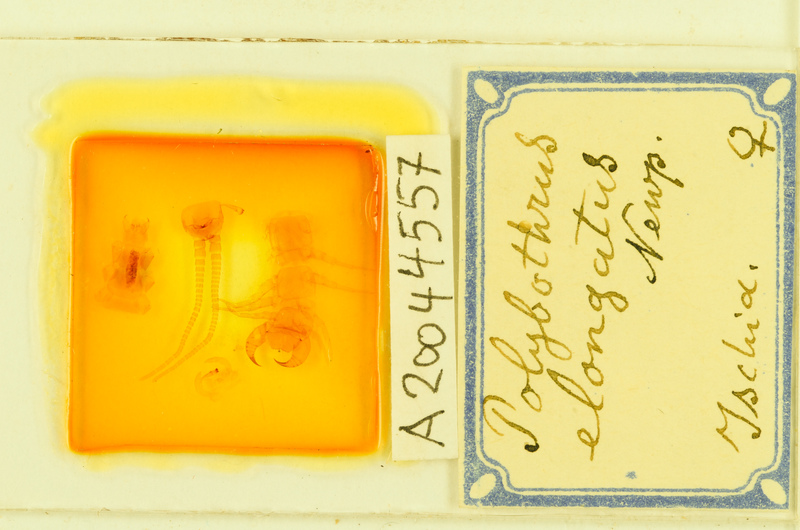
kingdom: Animalia
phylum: Arthropoda
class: Chilopoda
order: Lithobiomorpha
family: Lithobiidae
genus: Polybothrus
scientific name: Polybothrus
